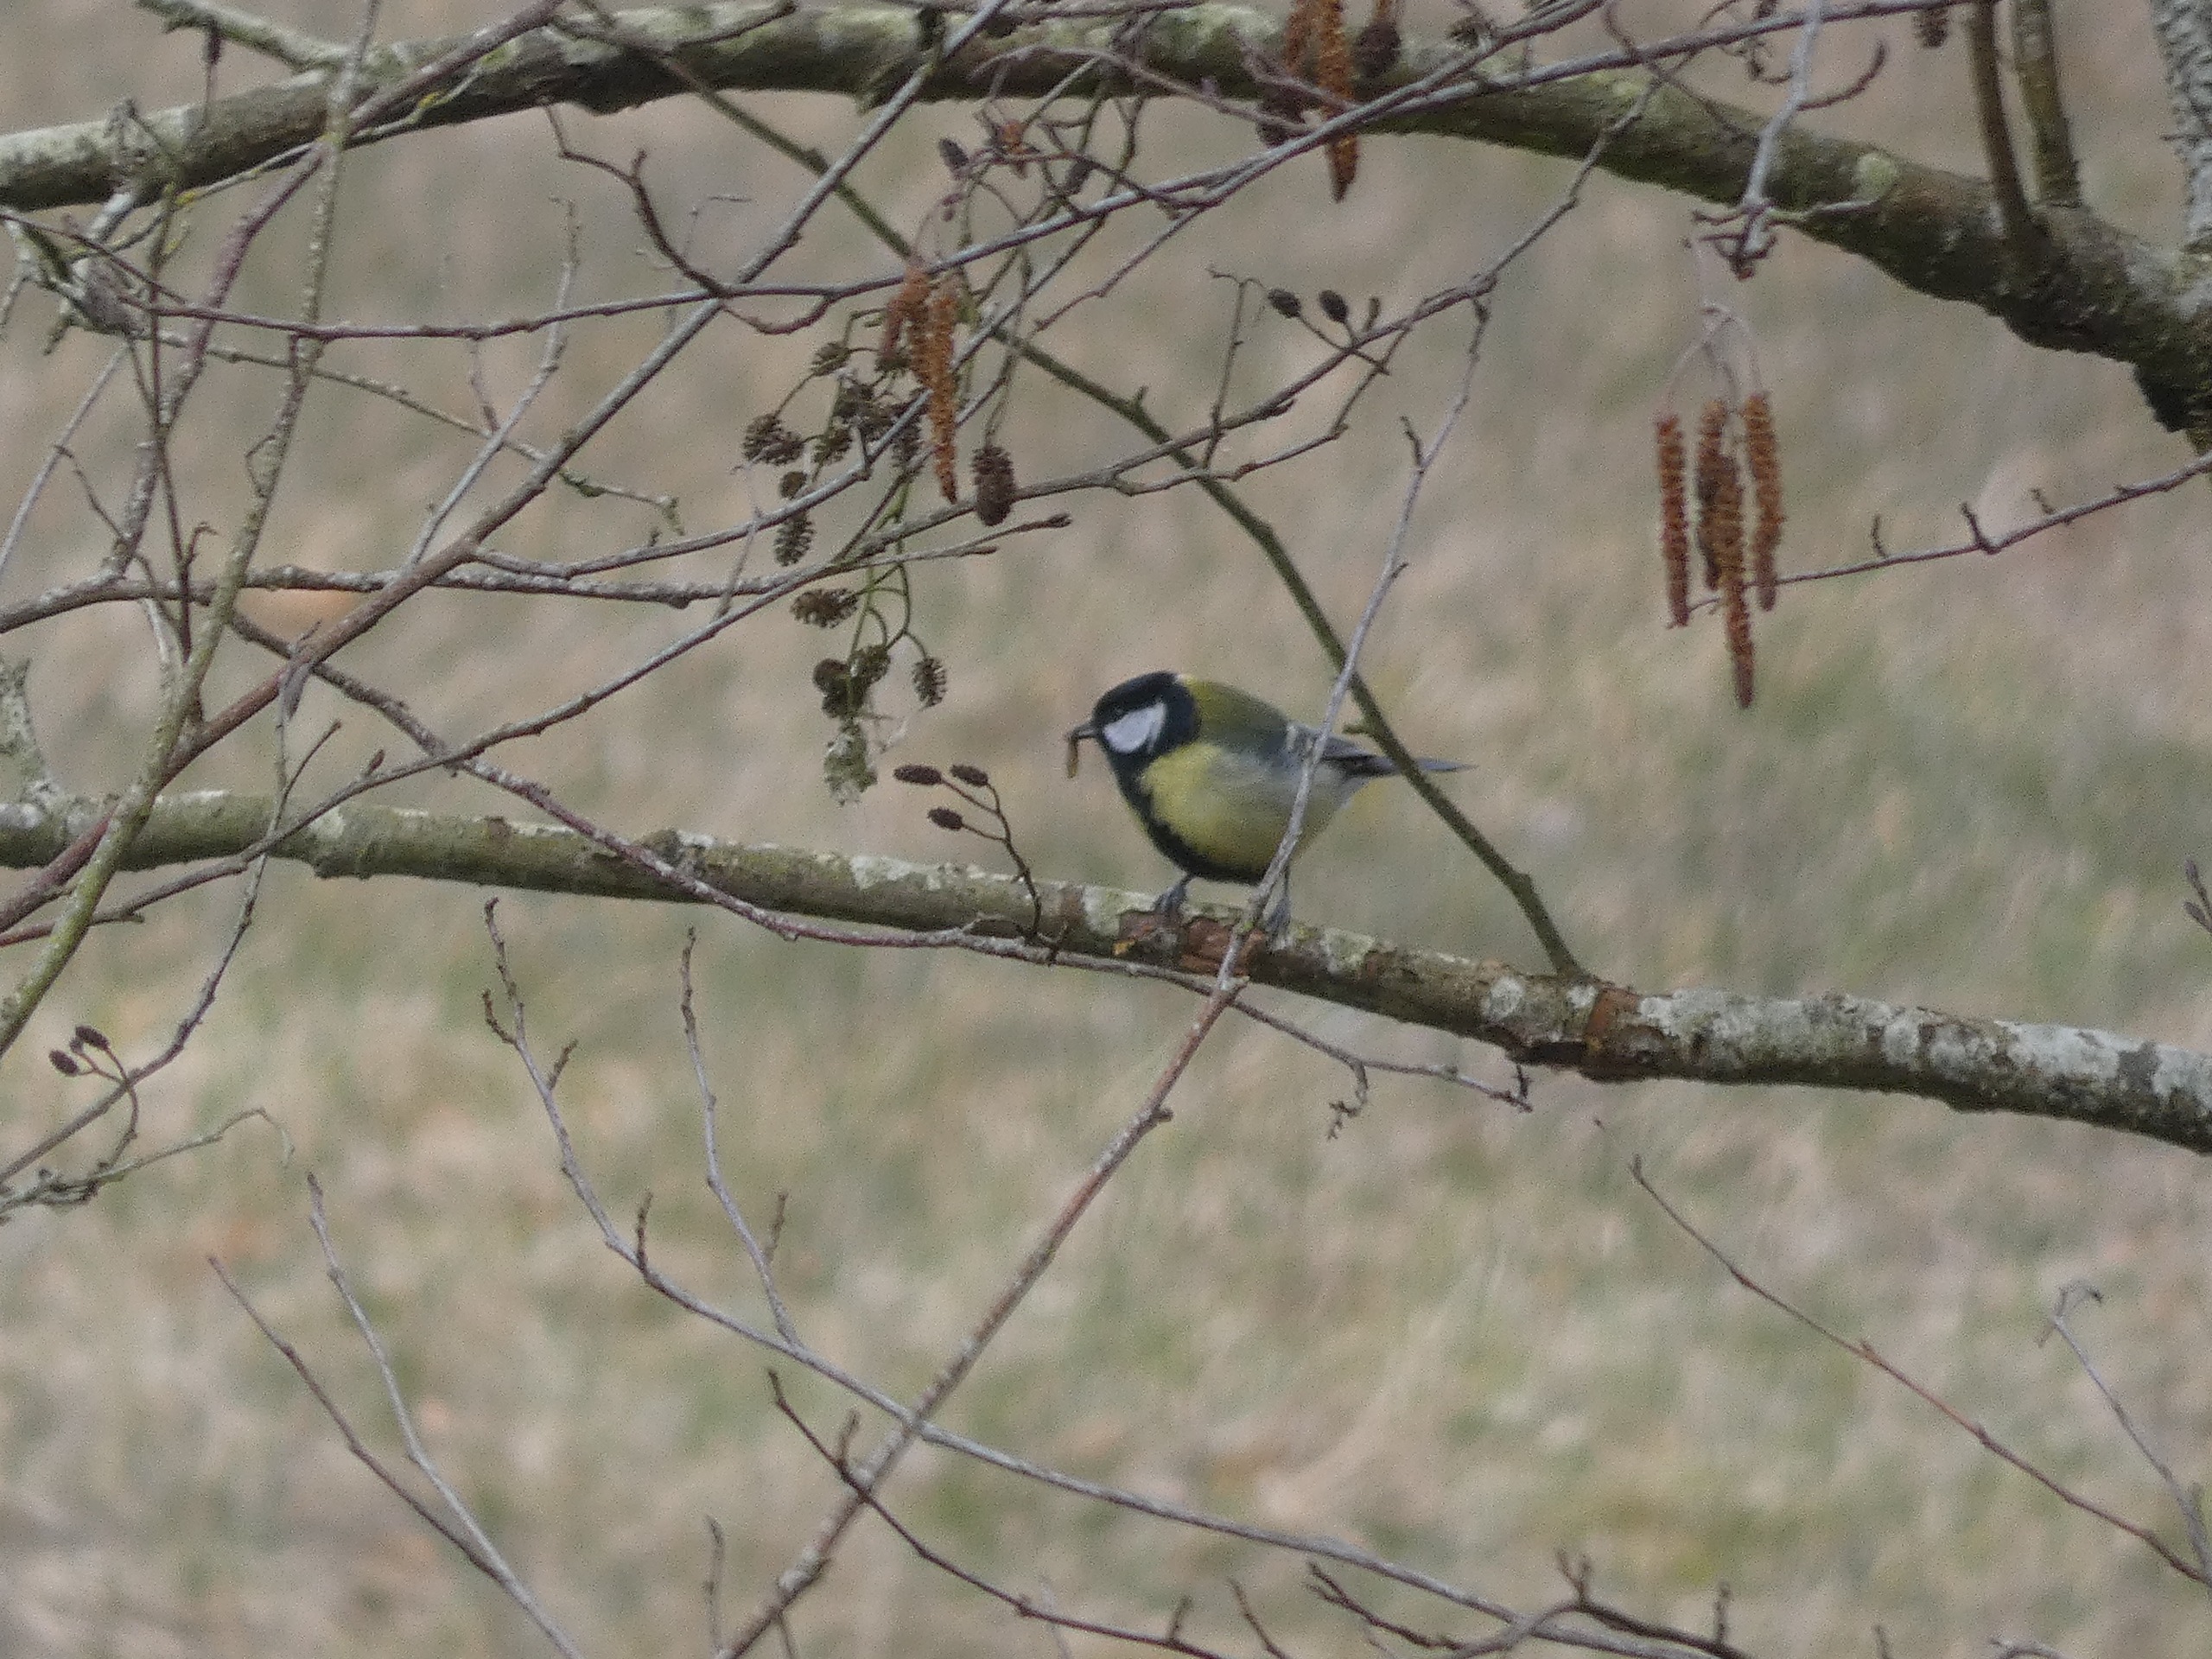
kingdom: Animalia
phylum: Chordata
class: Aves
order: Passeriformes
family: Paridae
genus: Parus
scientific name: Parus major
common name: Musvit
